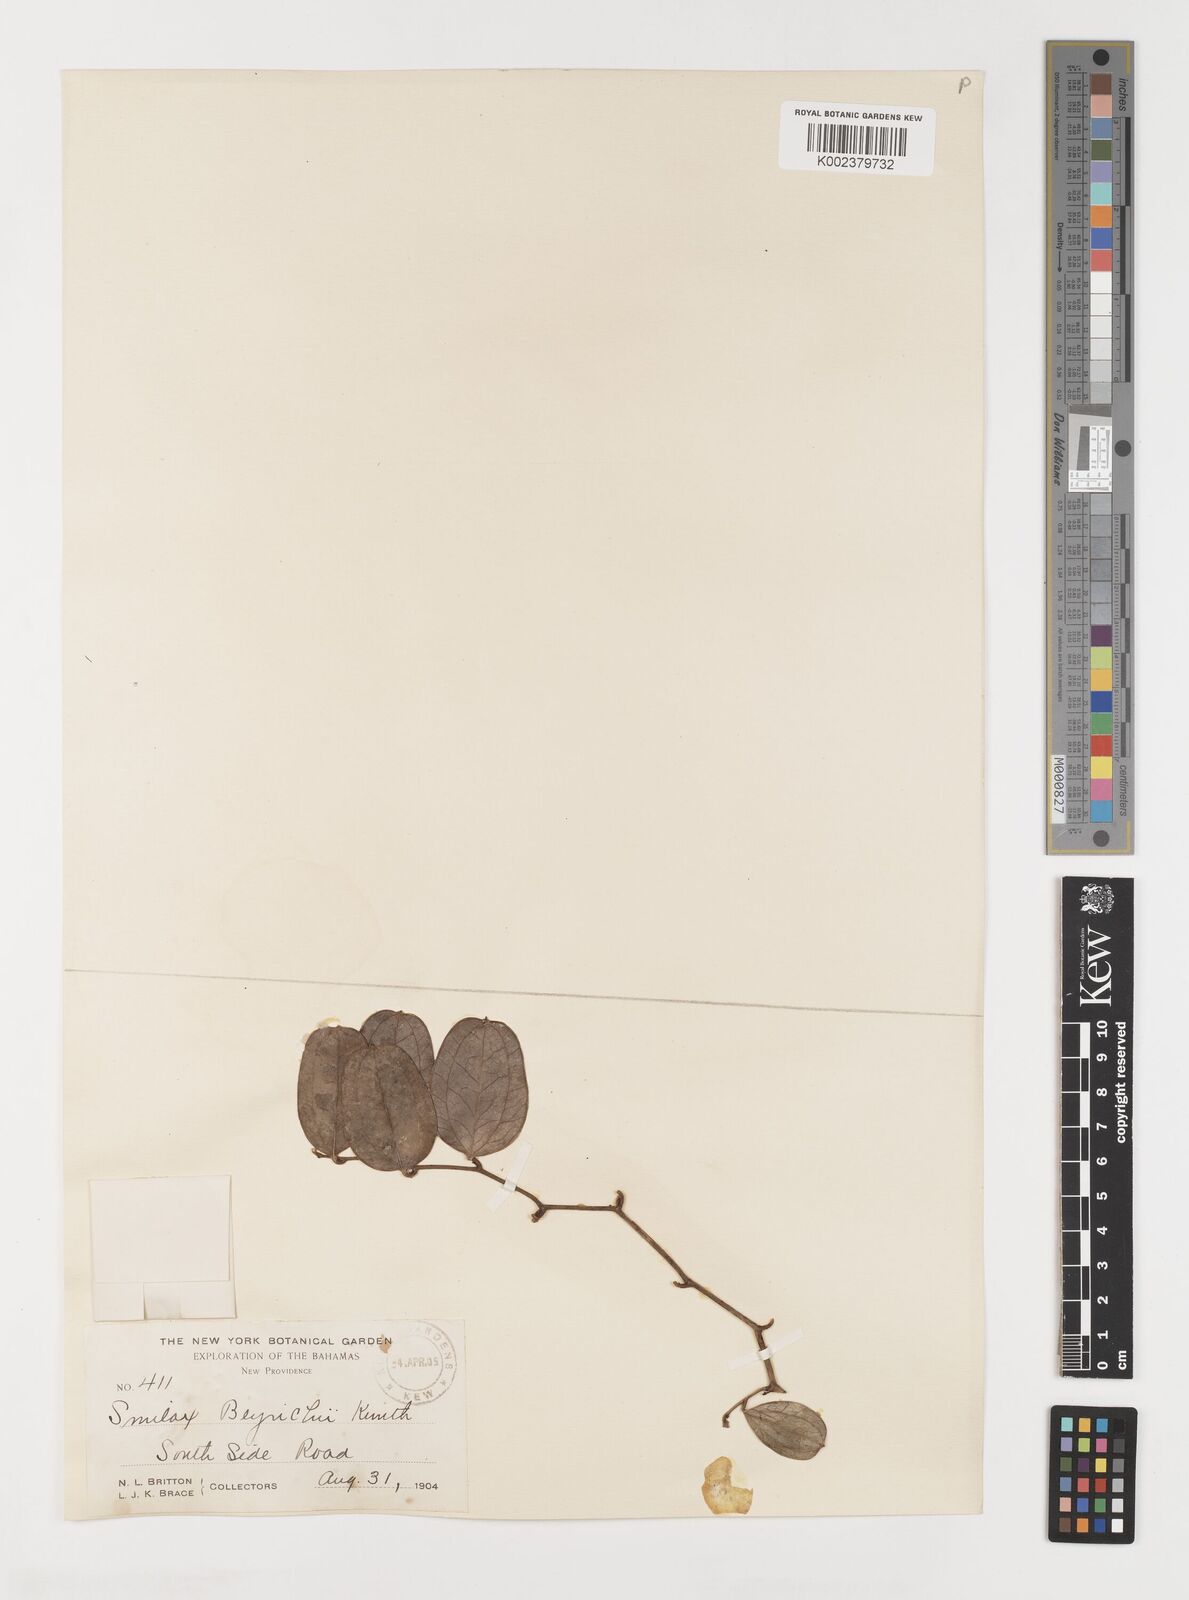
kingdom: Plantae
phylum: Tracheophyta
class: Liliopsida
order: Liliales
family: Smilacaceae
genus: Smilax
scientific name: Smilax auriculata
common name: Wild bamboo
